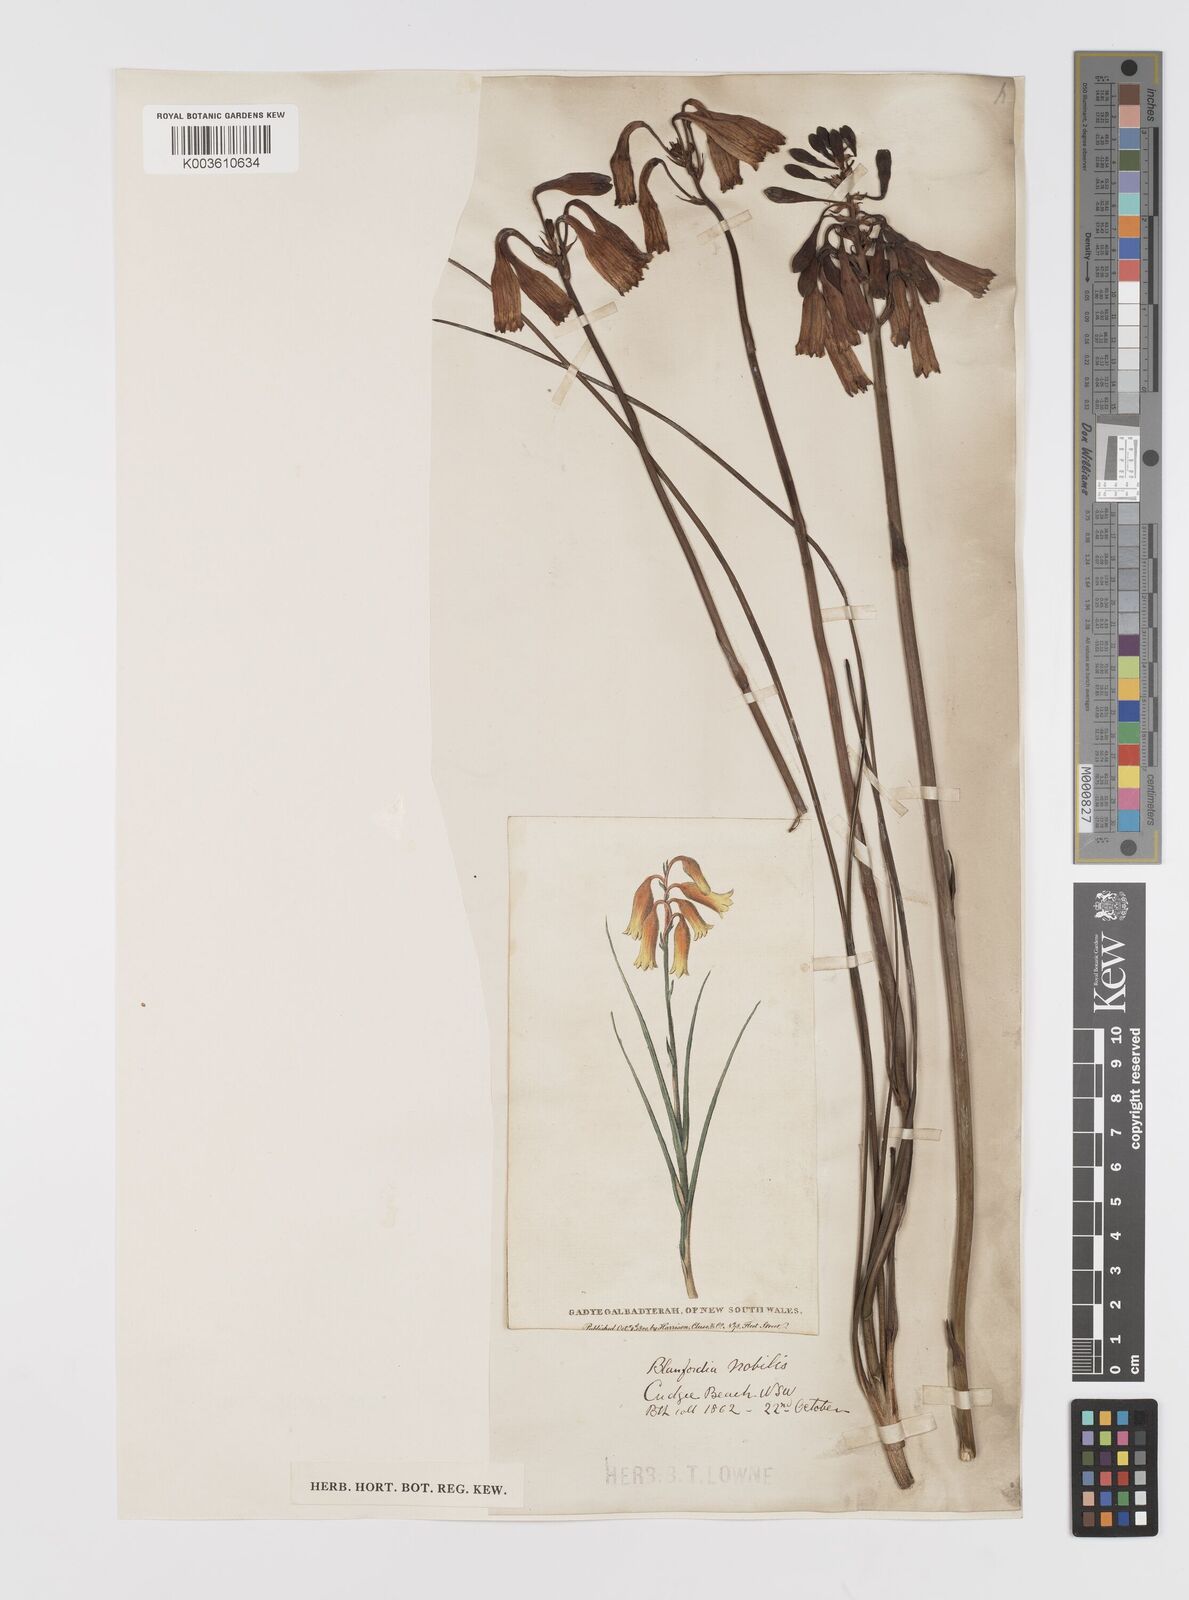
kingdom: Plantae
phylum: Tracheophyta
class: Liliopsida
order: Asparagales
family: Blandfordiaceae
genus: Blandfordia
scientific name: Blandfordia nobilis
